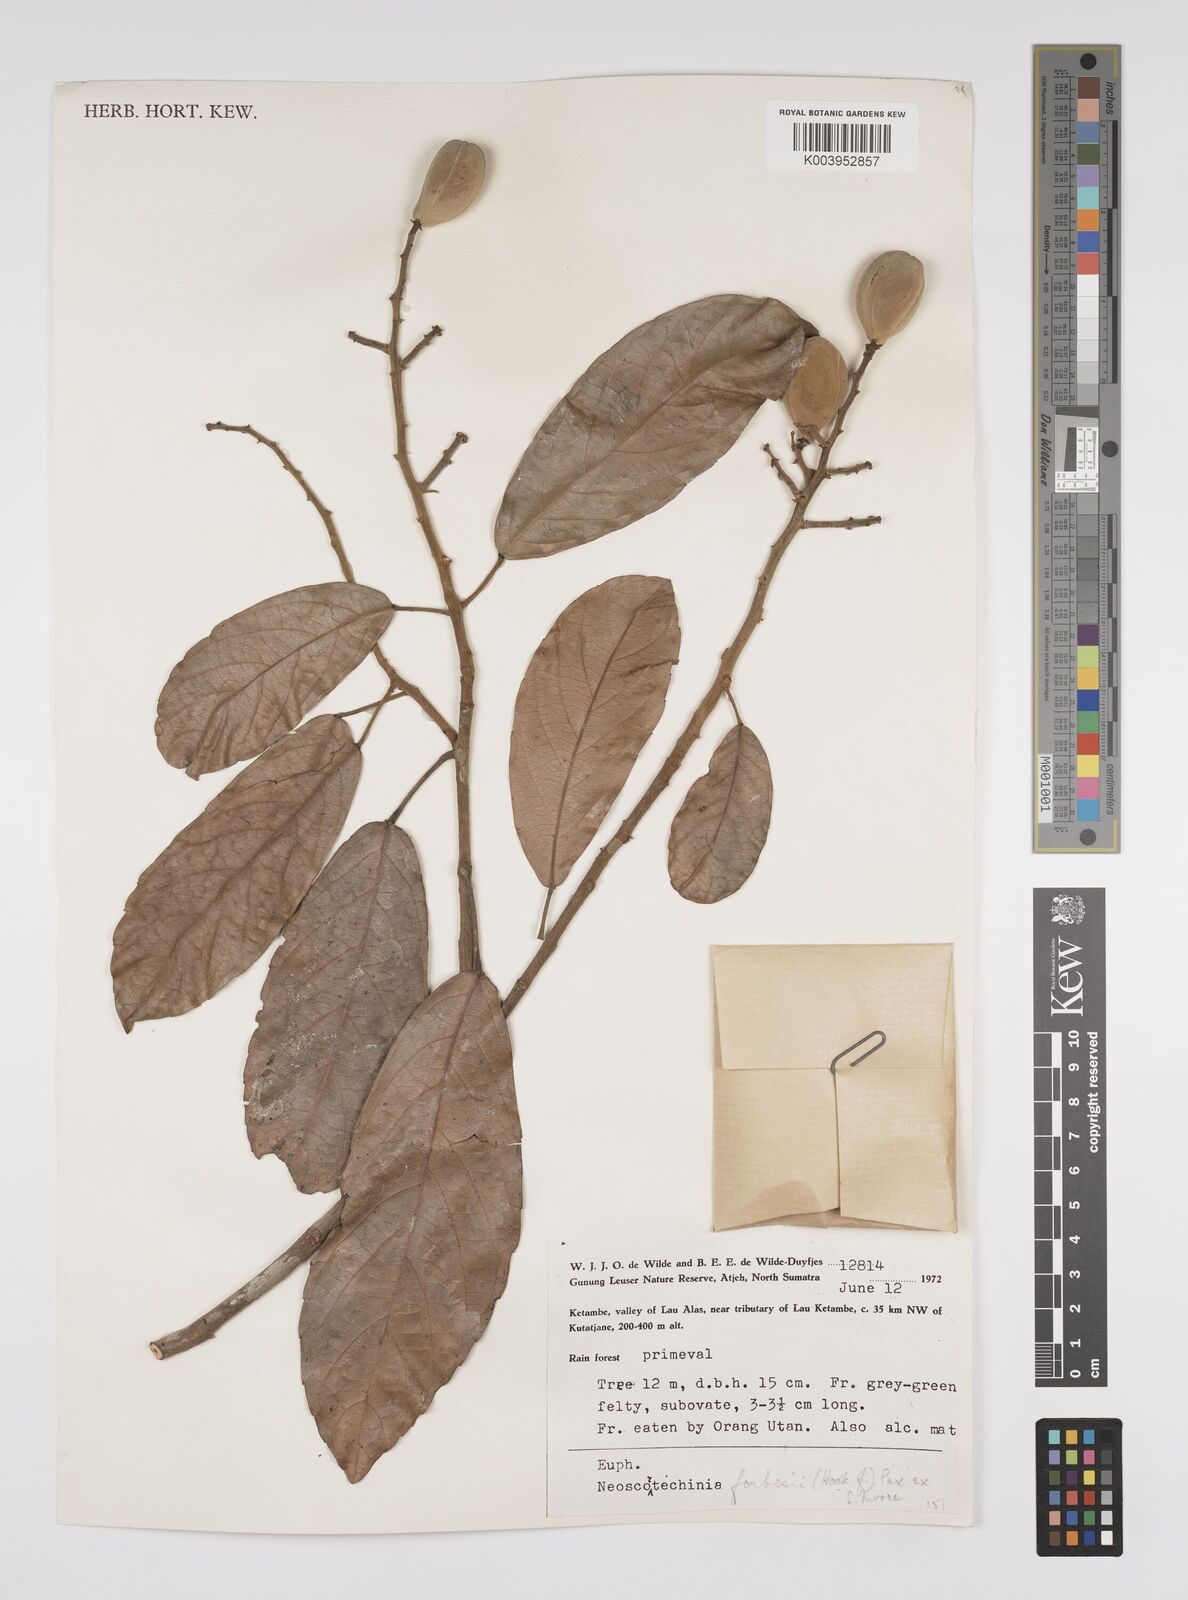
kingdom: Plantae
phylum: Tracheophyta
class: Magnoliopsida
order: Malpighiales
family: Euphorbiaceae
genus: Neoscortechinia
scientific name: Neoscortechinia philippinensis
